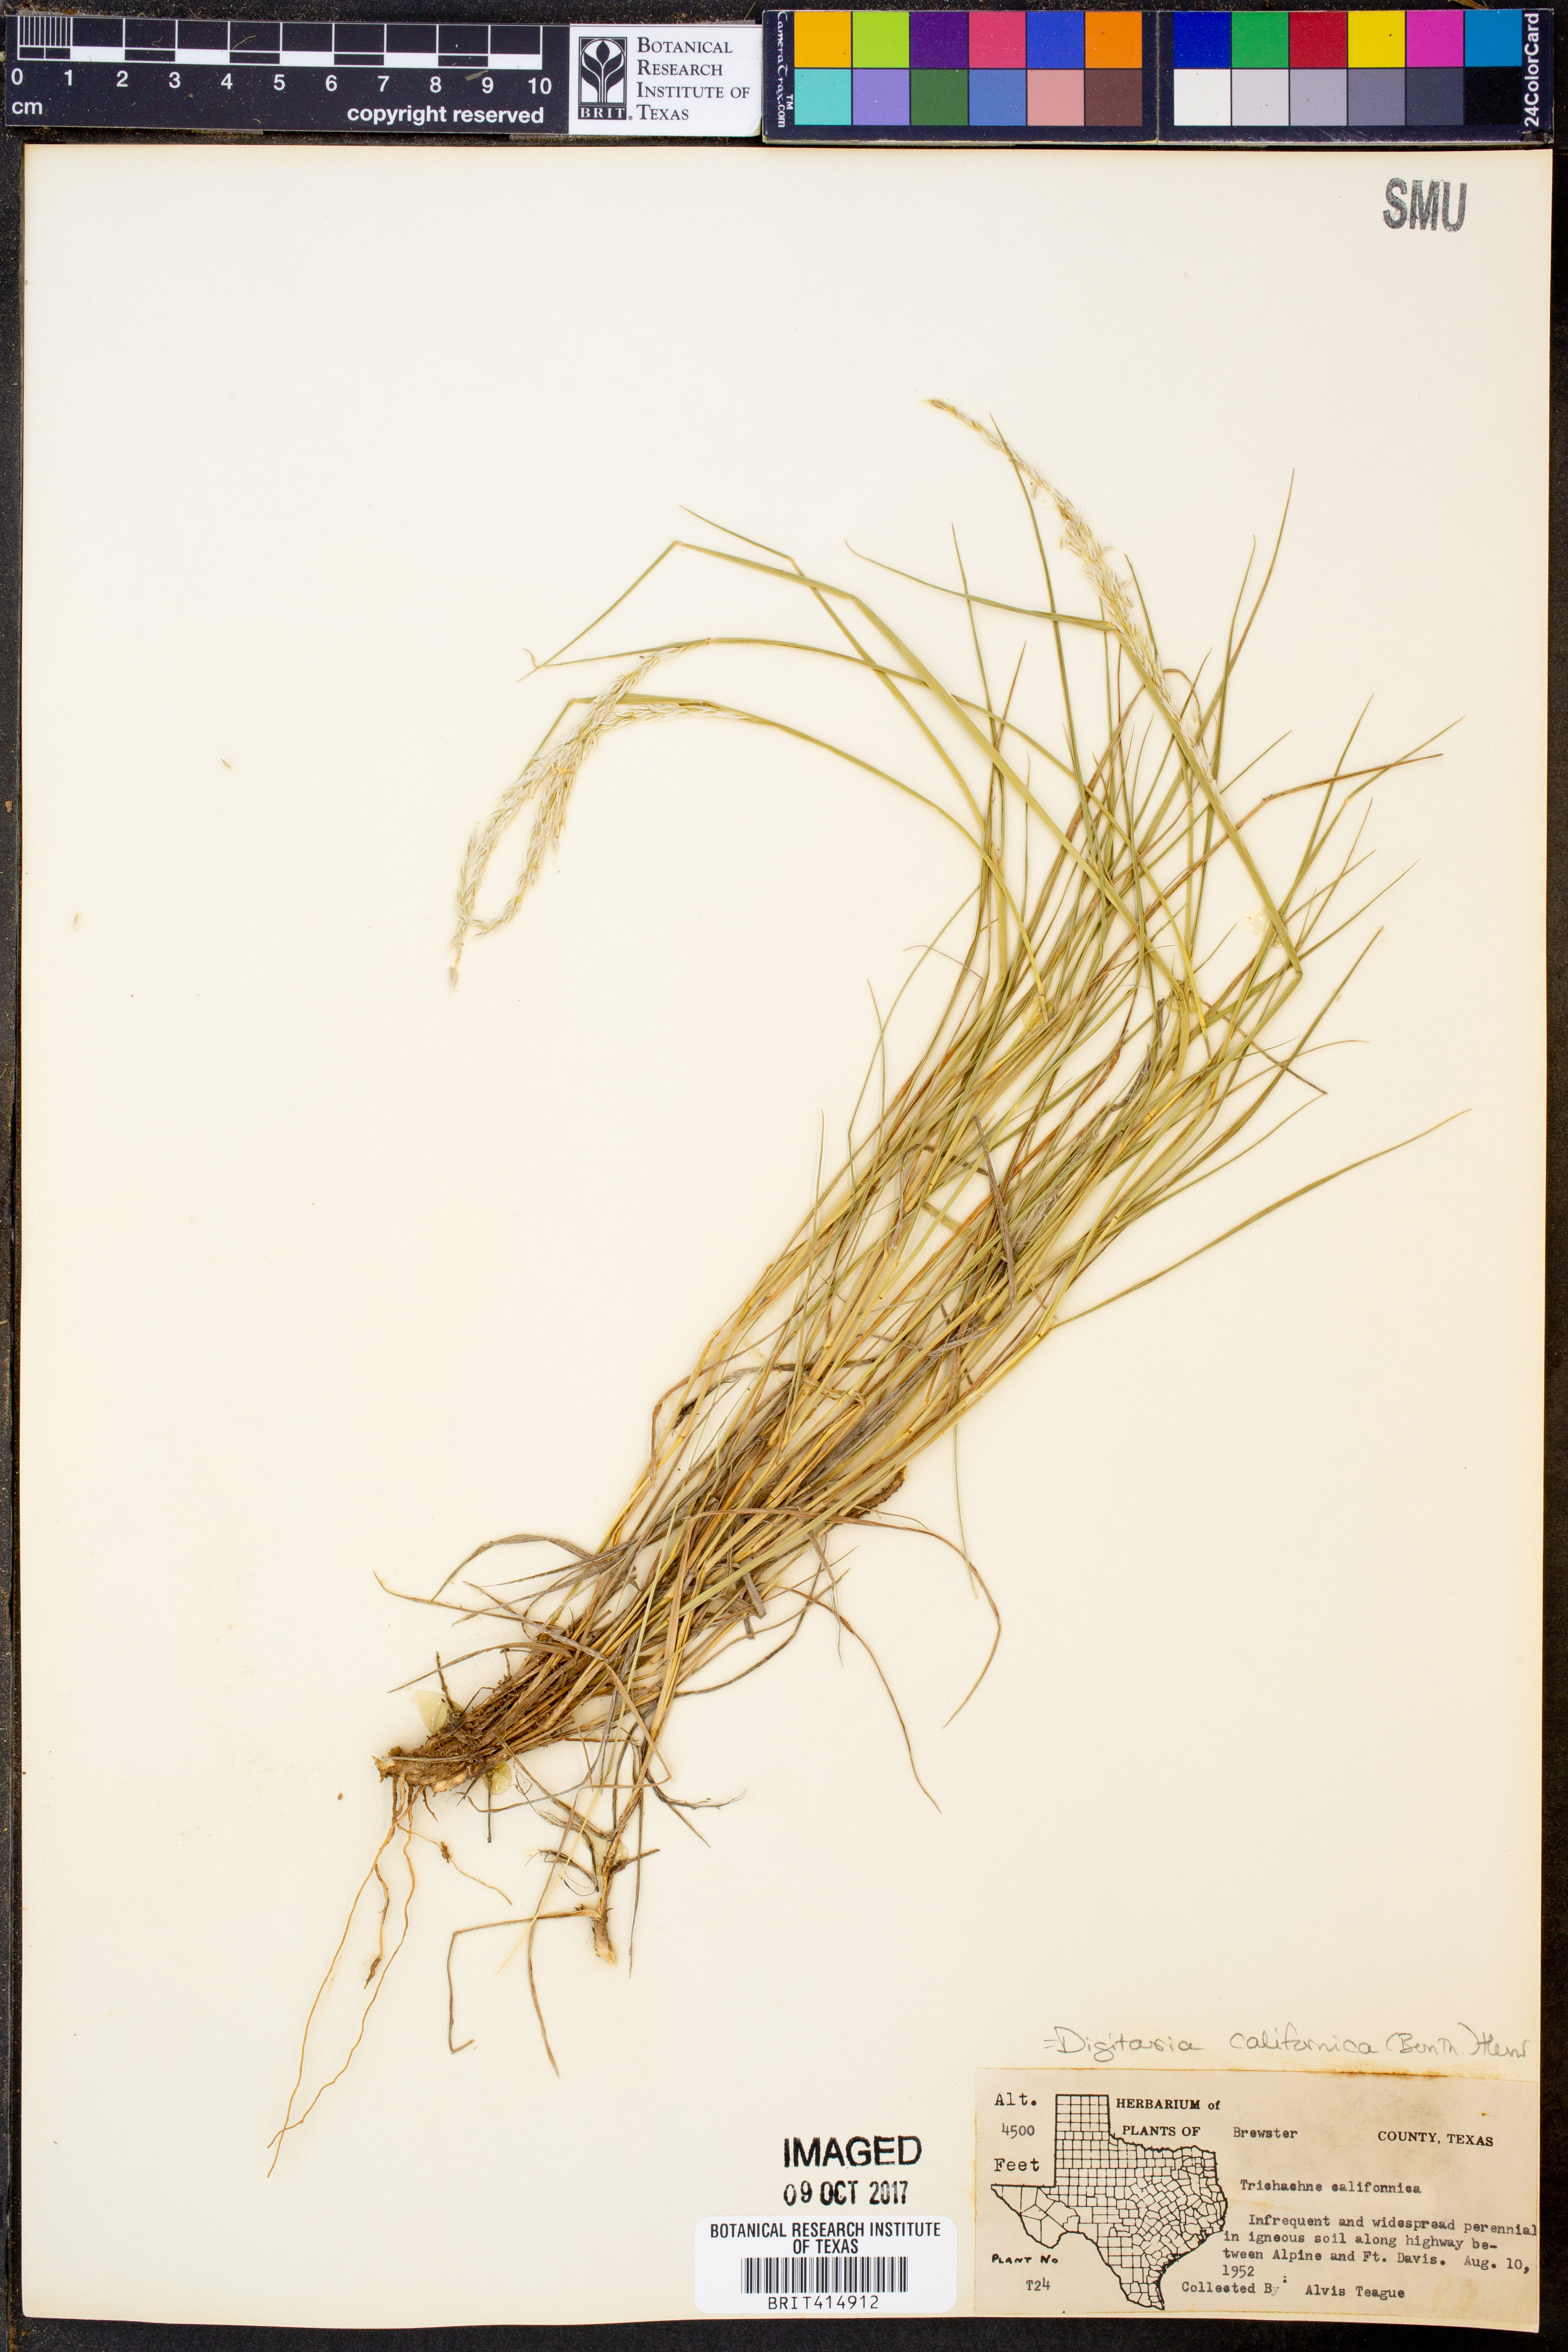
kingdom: Plantae
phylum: Tracheophyta
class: Liliopsida
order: Poales
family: Poaceae
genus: Digitaria
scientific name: Digitaria californica
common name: Arizona cottontop
